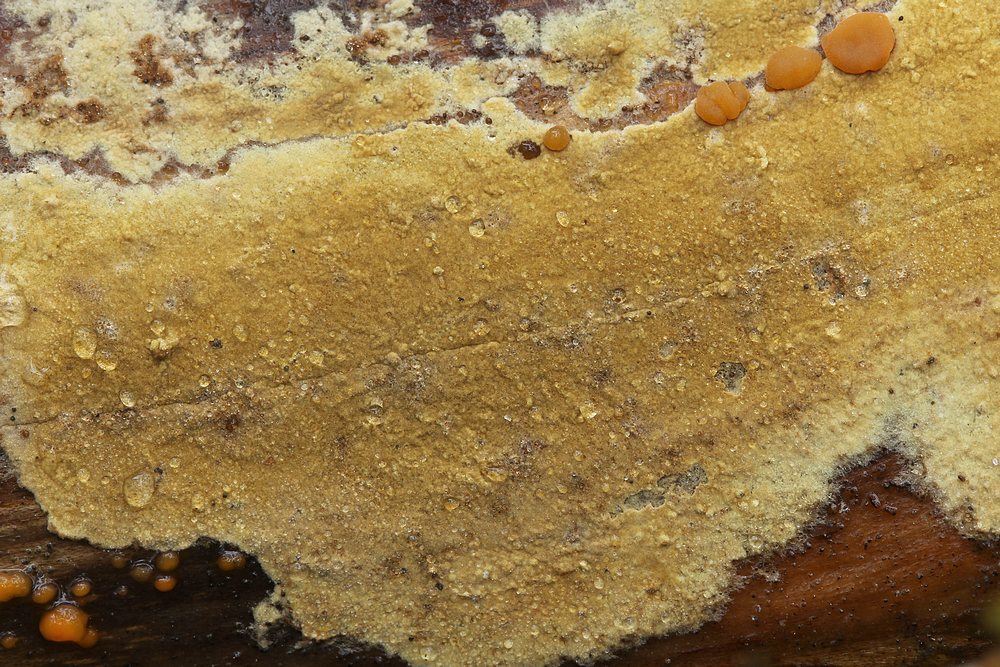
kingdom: Fungi
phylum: Basidiomycota
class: Agaricomycetes
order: Boletales
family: Coniophoraceae
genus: Coniophora
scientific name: Coniophora
